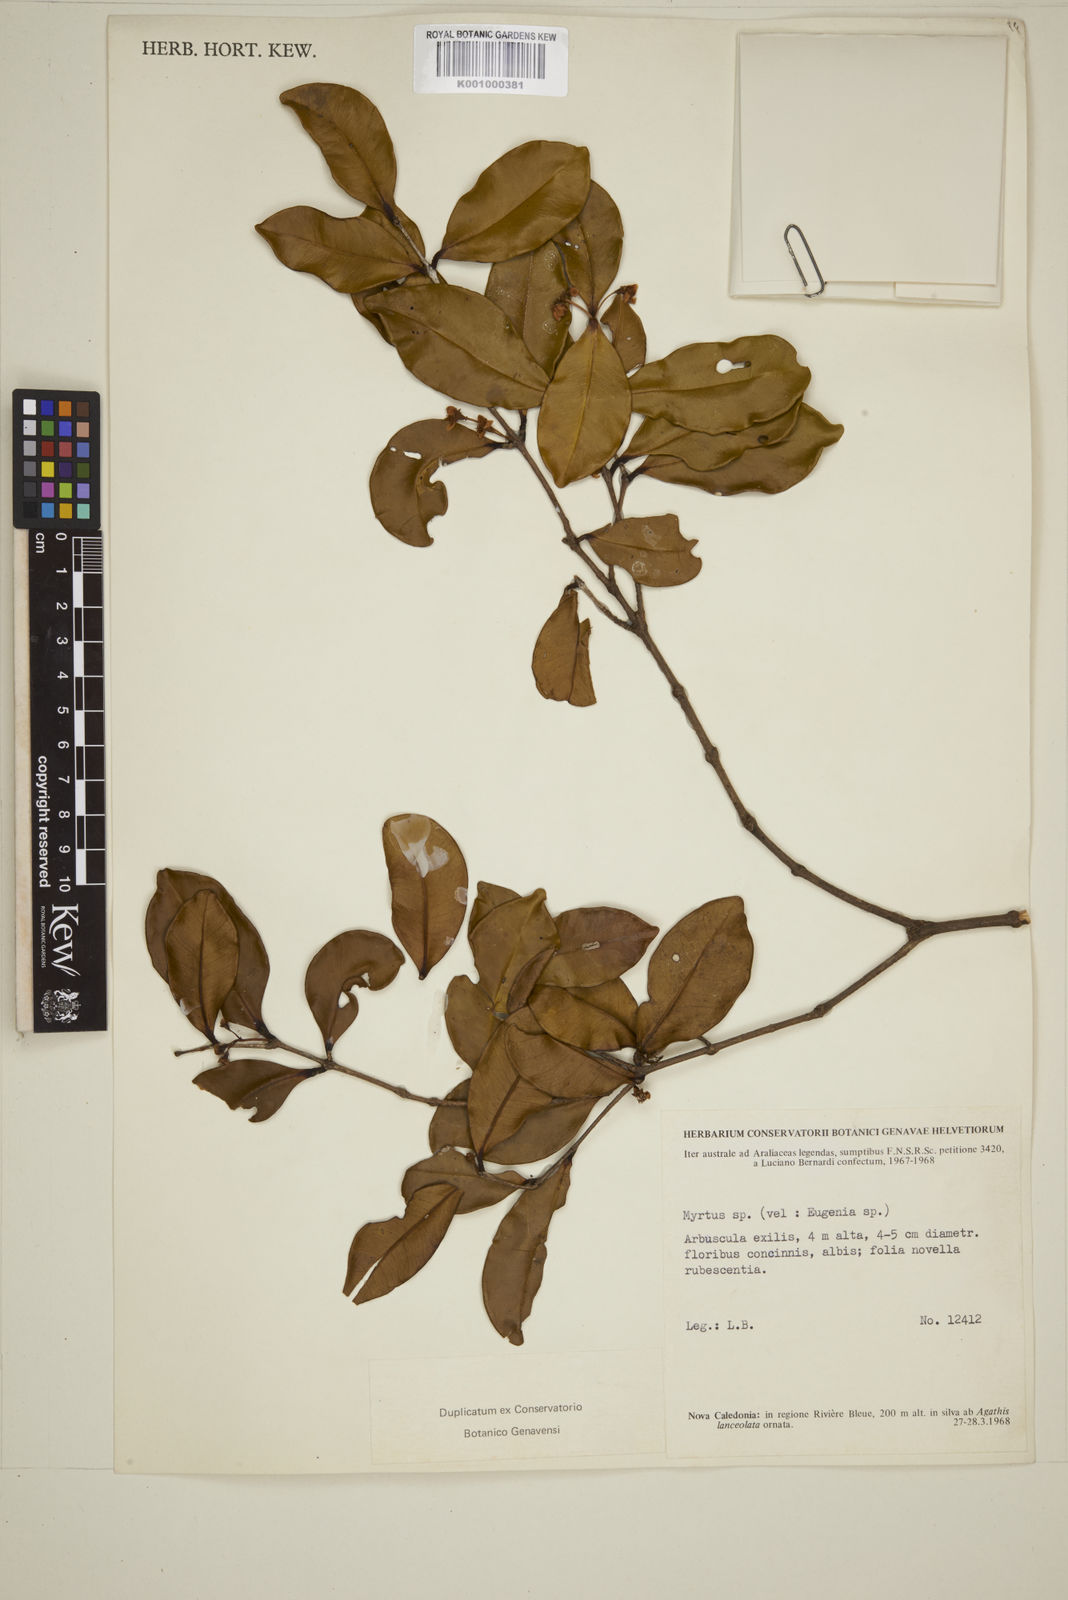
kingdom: Plantae
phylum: Tracheophyta
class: Magnoliopsida
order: Myrtales
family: Myrtaceae
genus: Eugenia
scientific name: Eugenia intermedia
